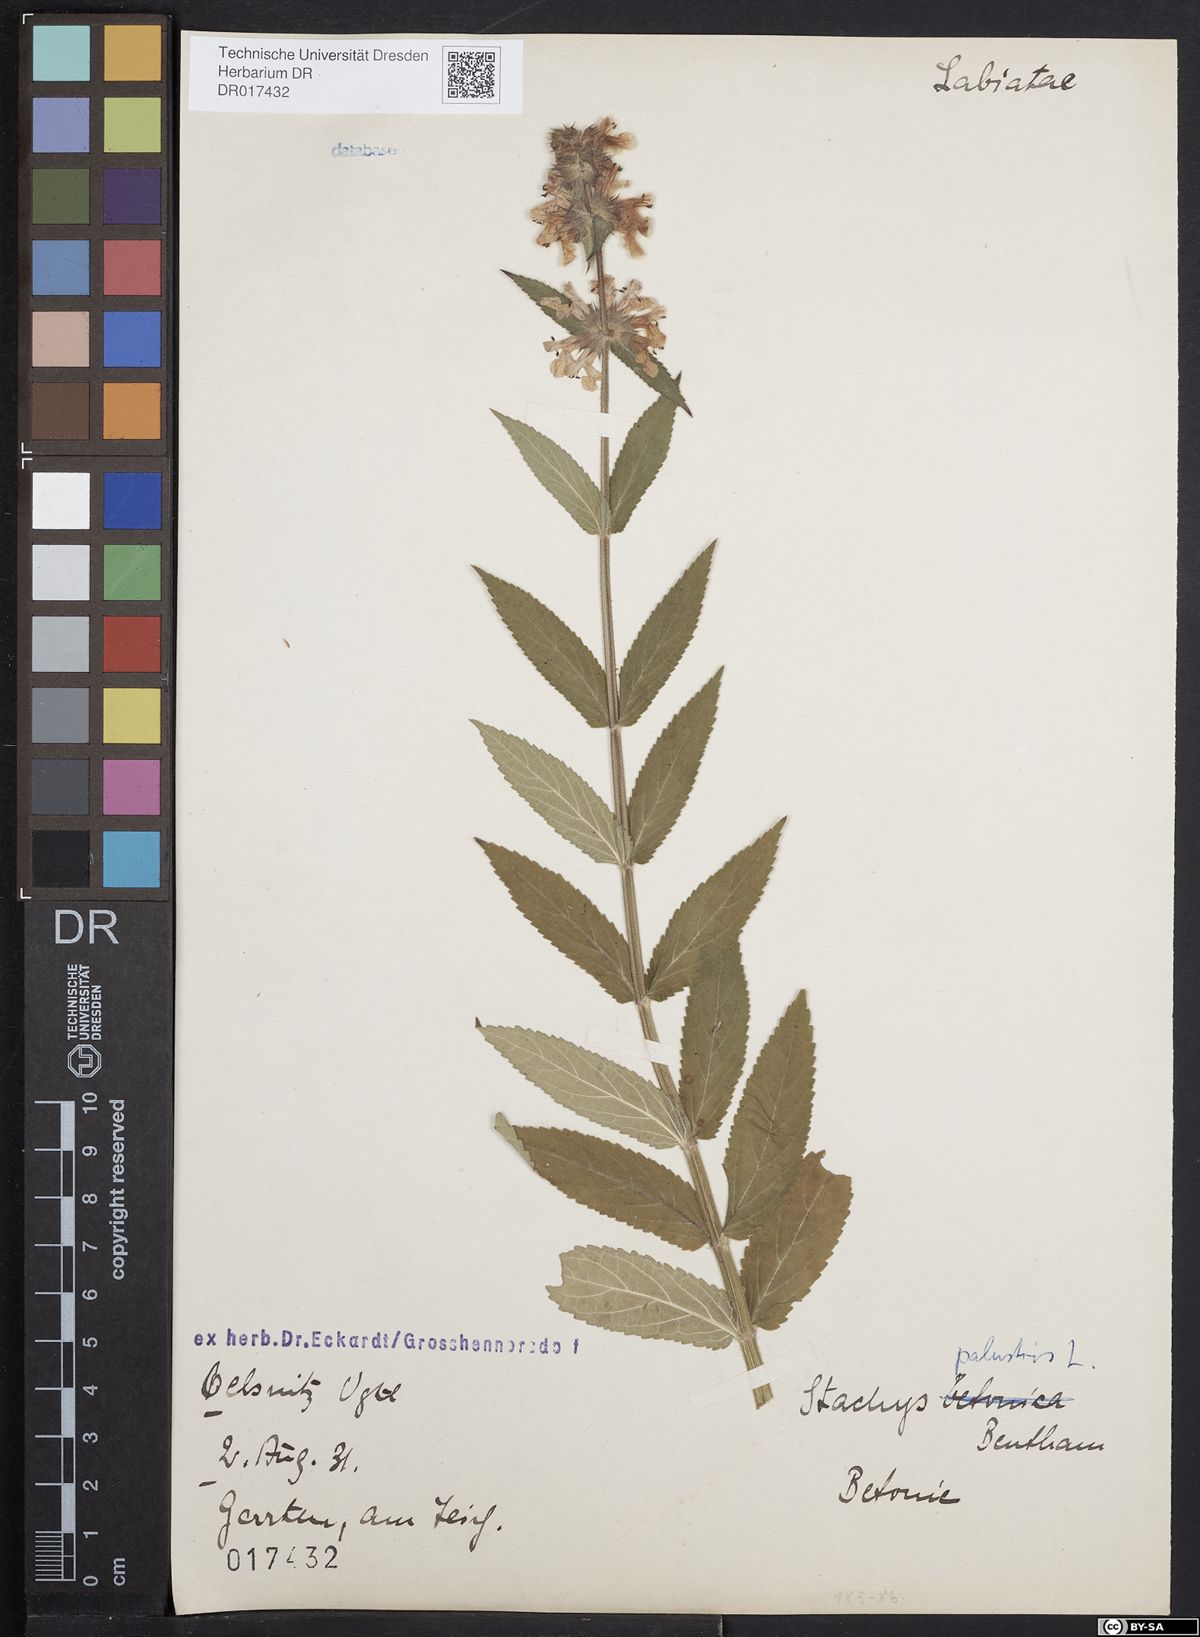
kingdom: Plantae
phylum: Tracheophyta
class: Magnoliopsida
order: Lamiales
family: Lamiaceae
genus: Stachys
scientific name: Stachys palustris
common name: Marsh woundwort
